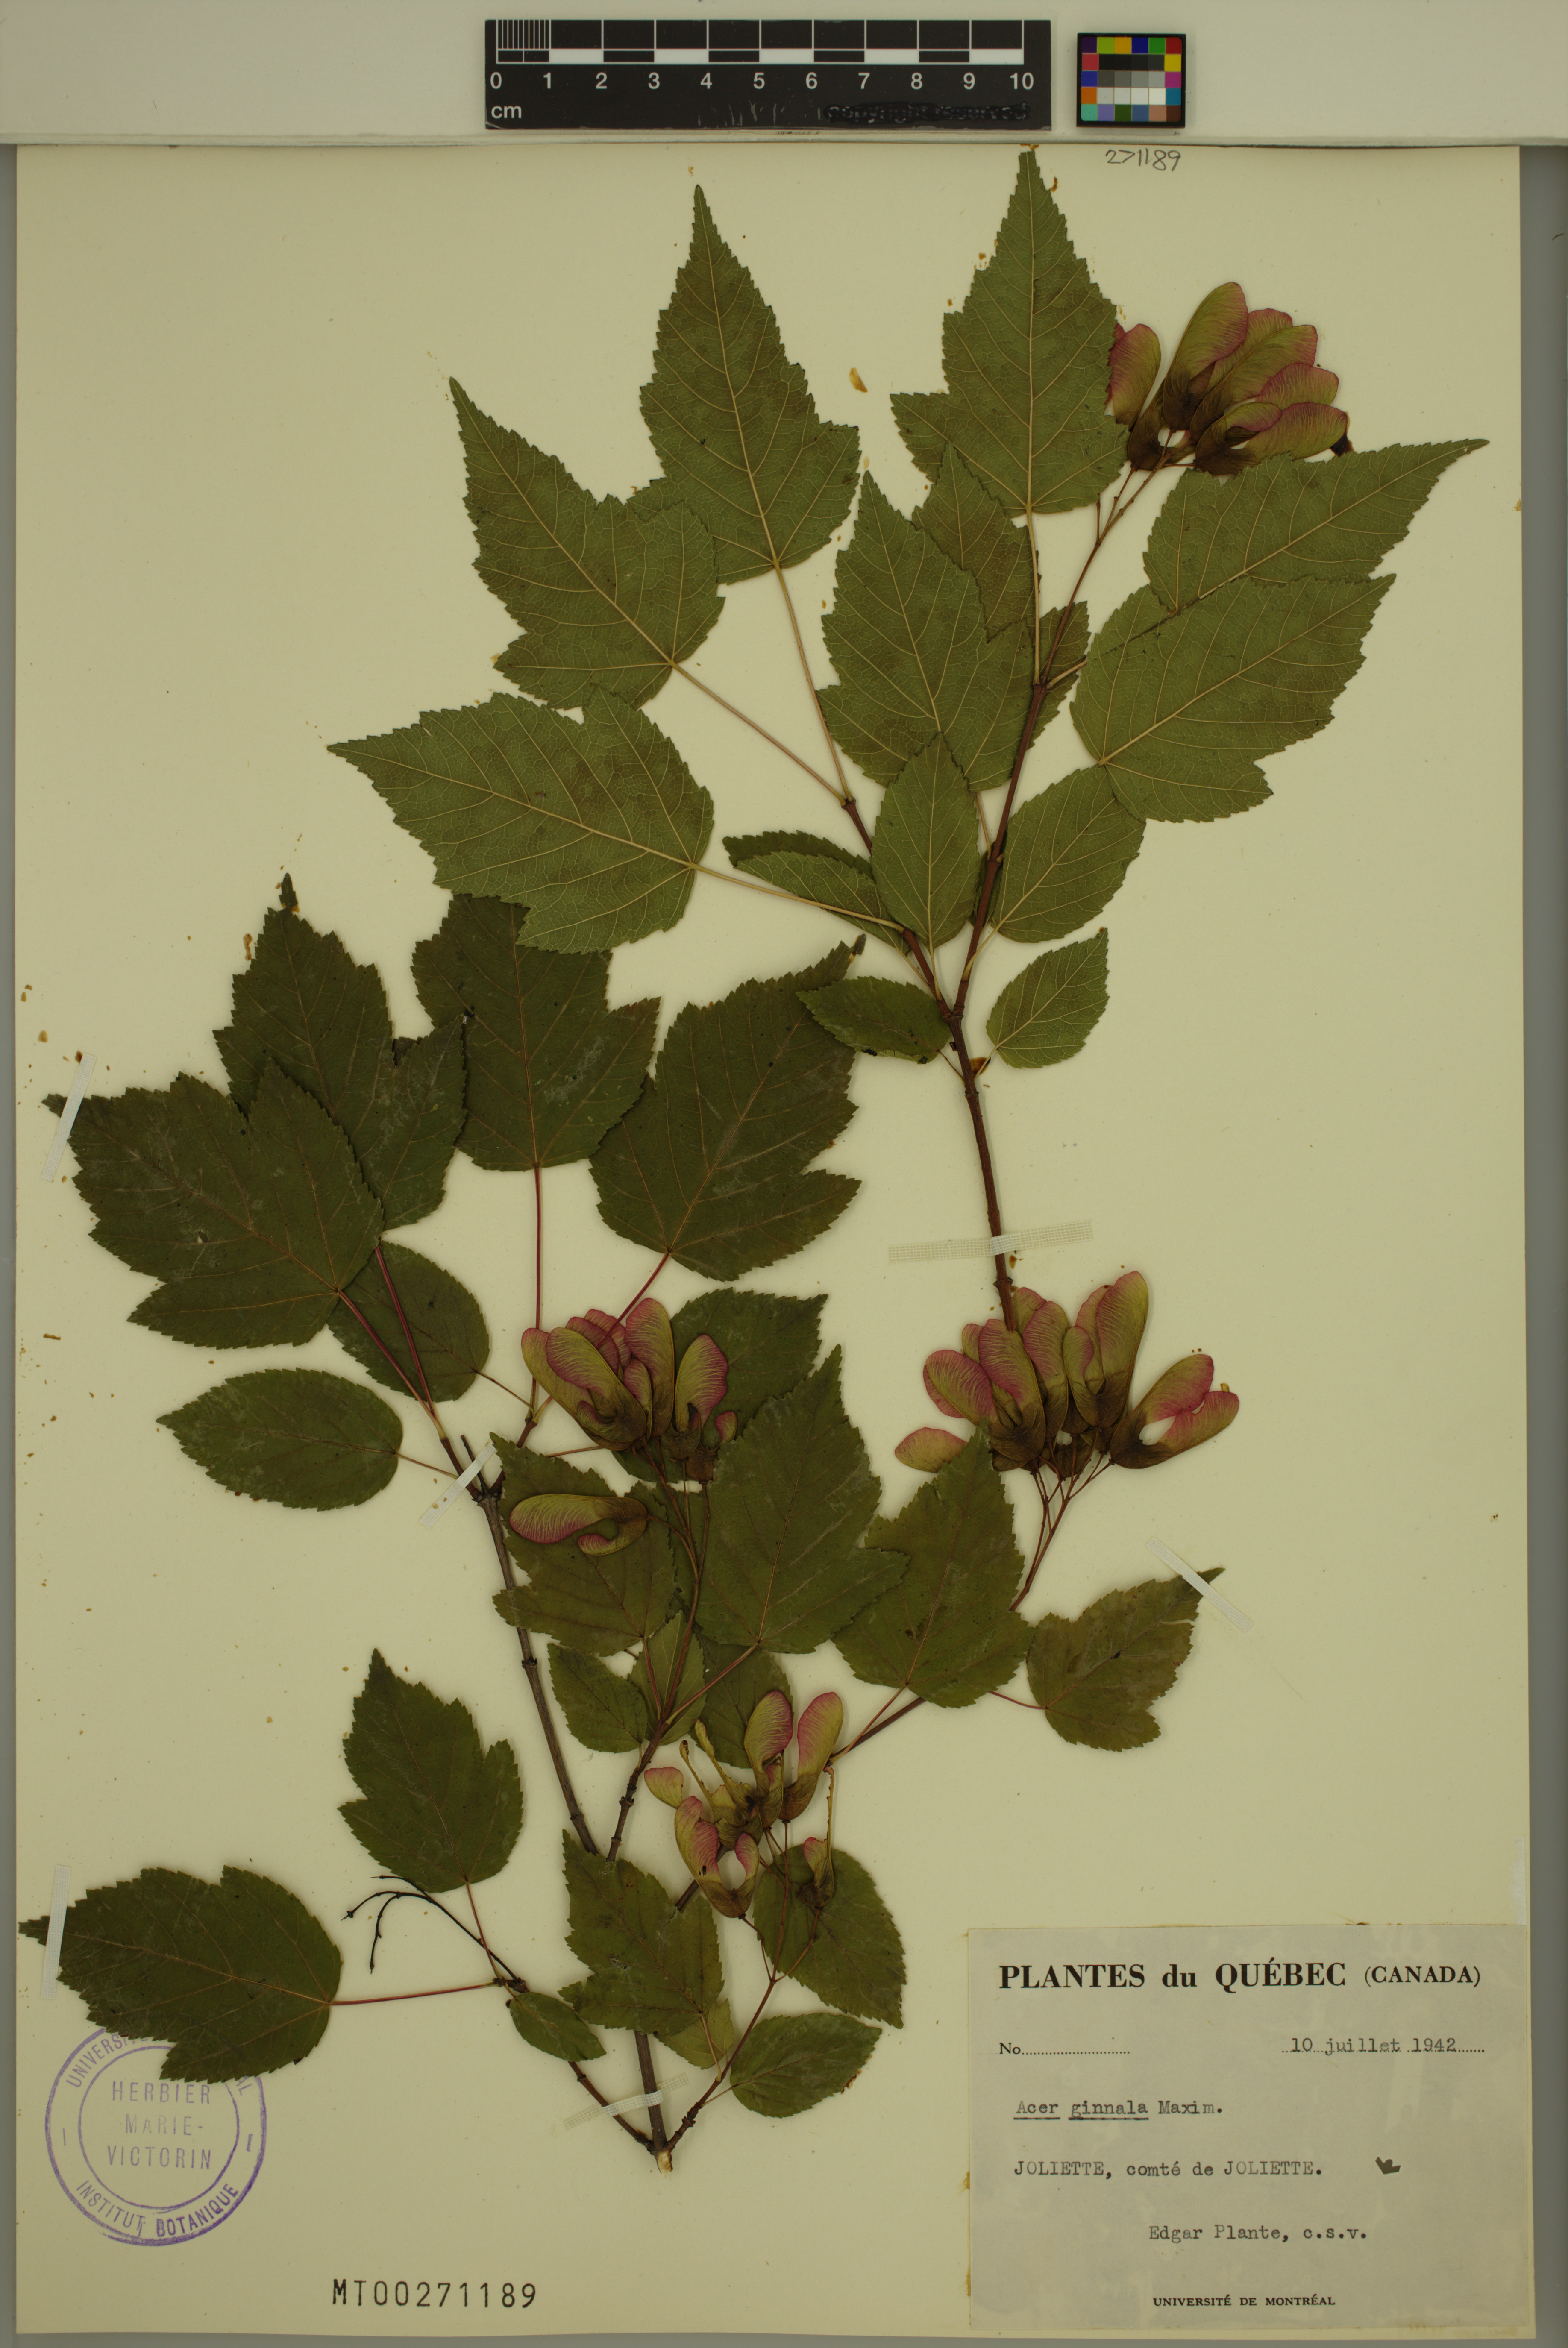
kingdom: Plantae
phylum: Tracheophyta
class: Magnoliopsida
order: Sapindales
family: Sapindaceae
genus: Acer
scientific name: Acer tataricum
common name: Tartar maple
